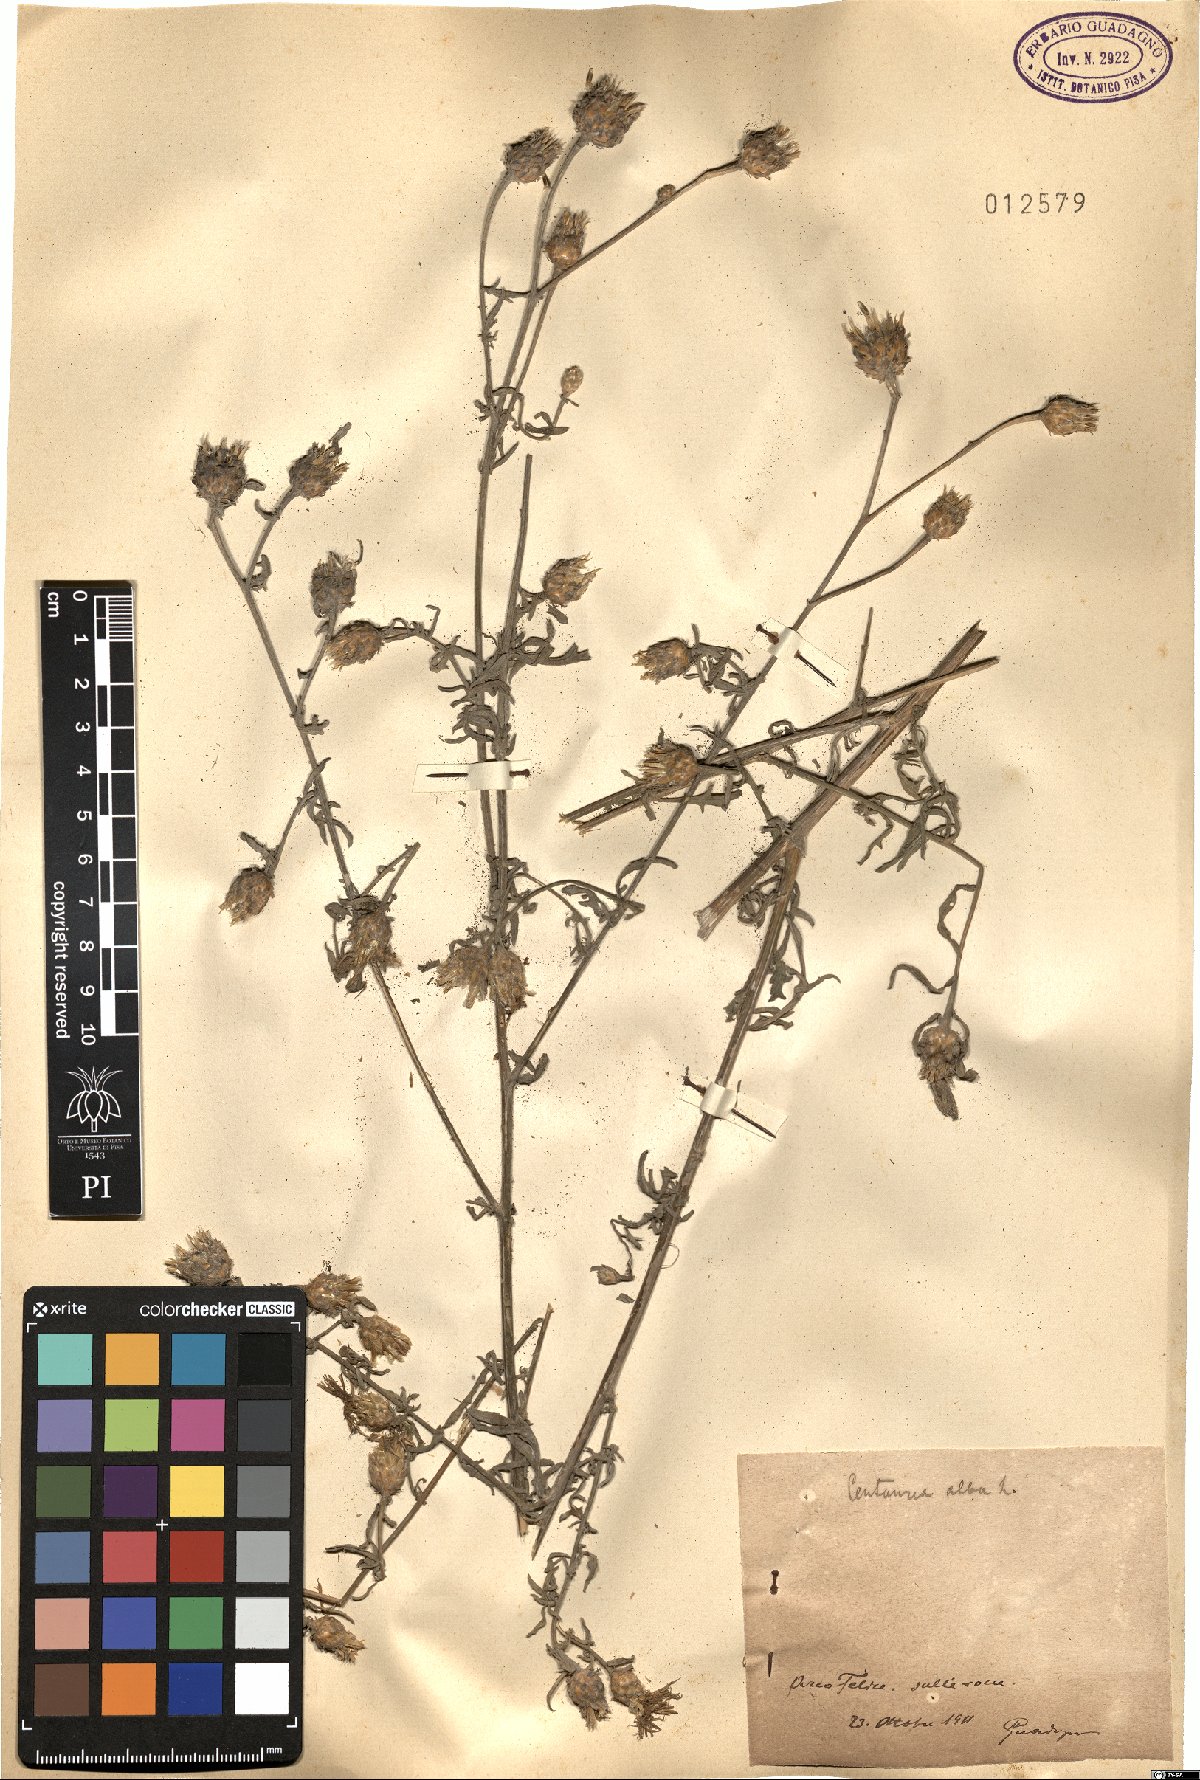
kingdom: Plantae
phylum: Tracheophyta
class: Magnoliopsida
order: Asterales
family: Asteraceae
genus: Centaurea
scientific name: Centaurea alba
